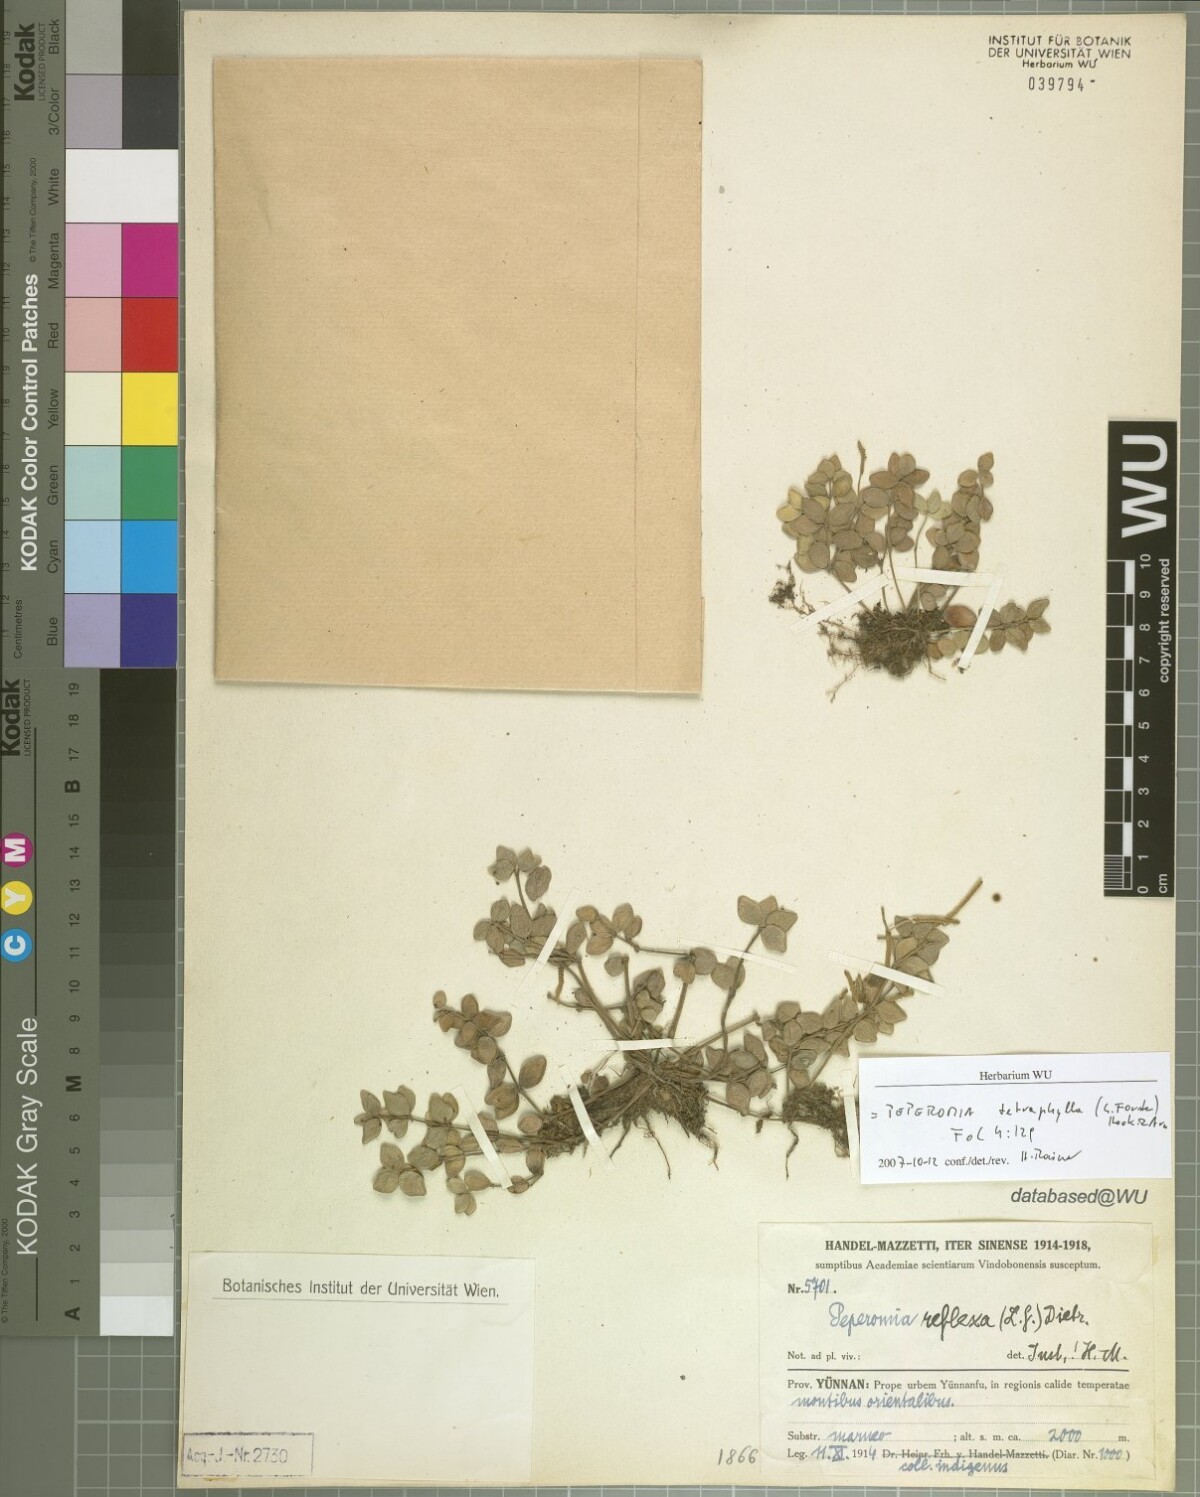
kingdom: Plantae
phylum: Tracheophyta
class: Magnoliopsida
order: Piperales
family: Piperaceae
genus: Peperomia
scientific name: Peperomia tetraphylla
